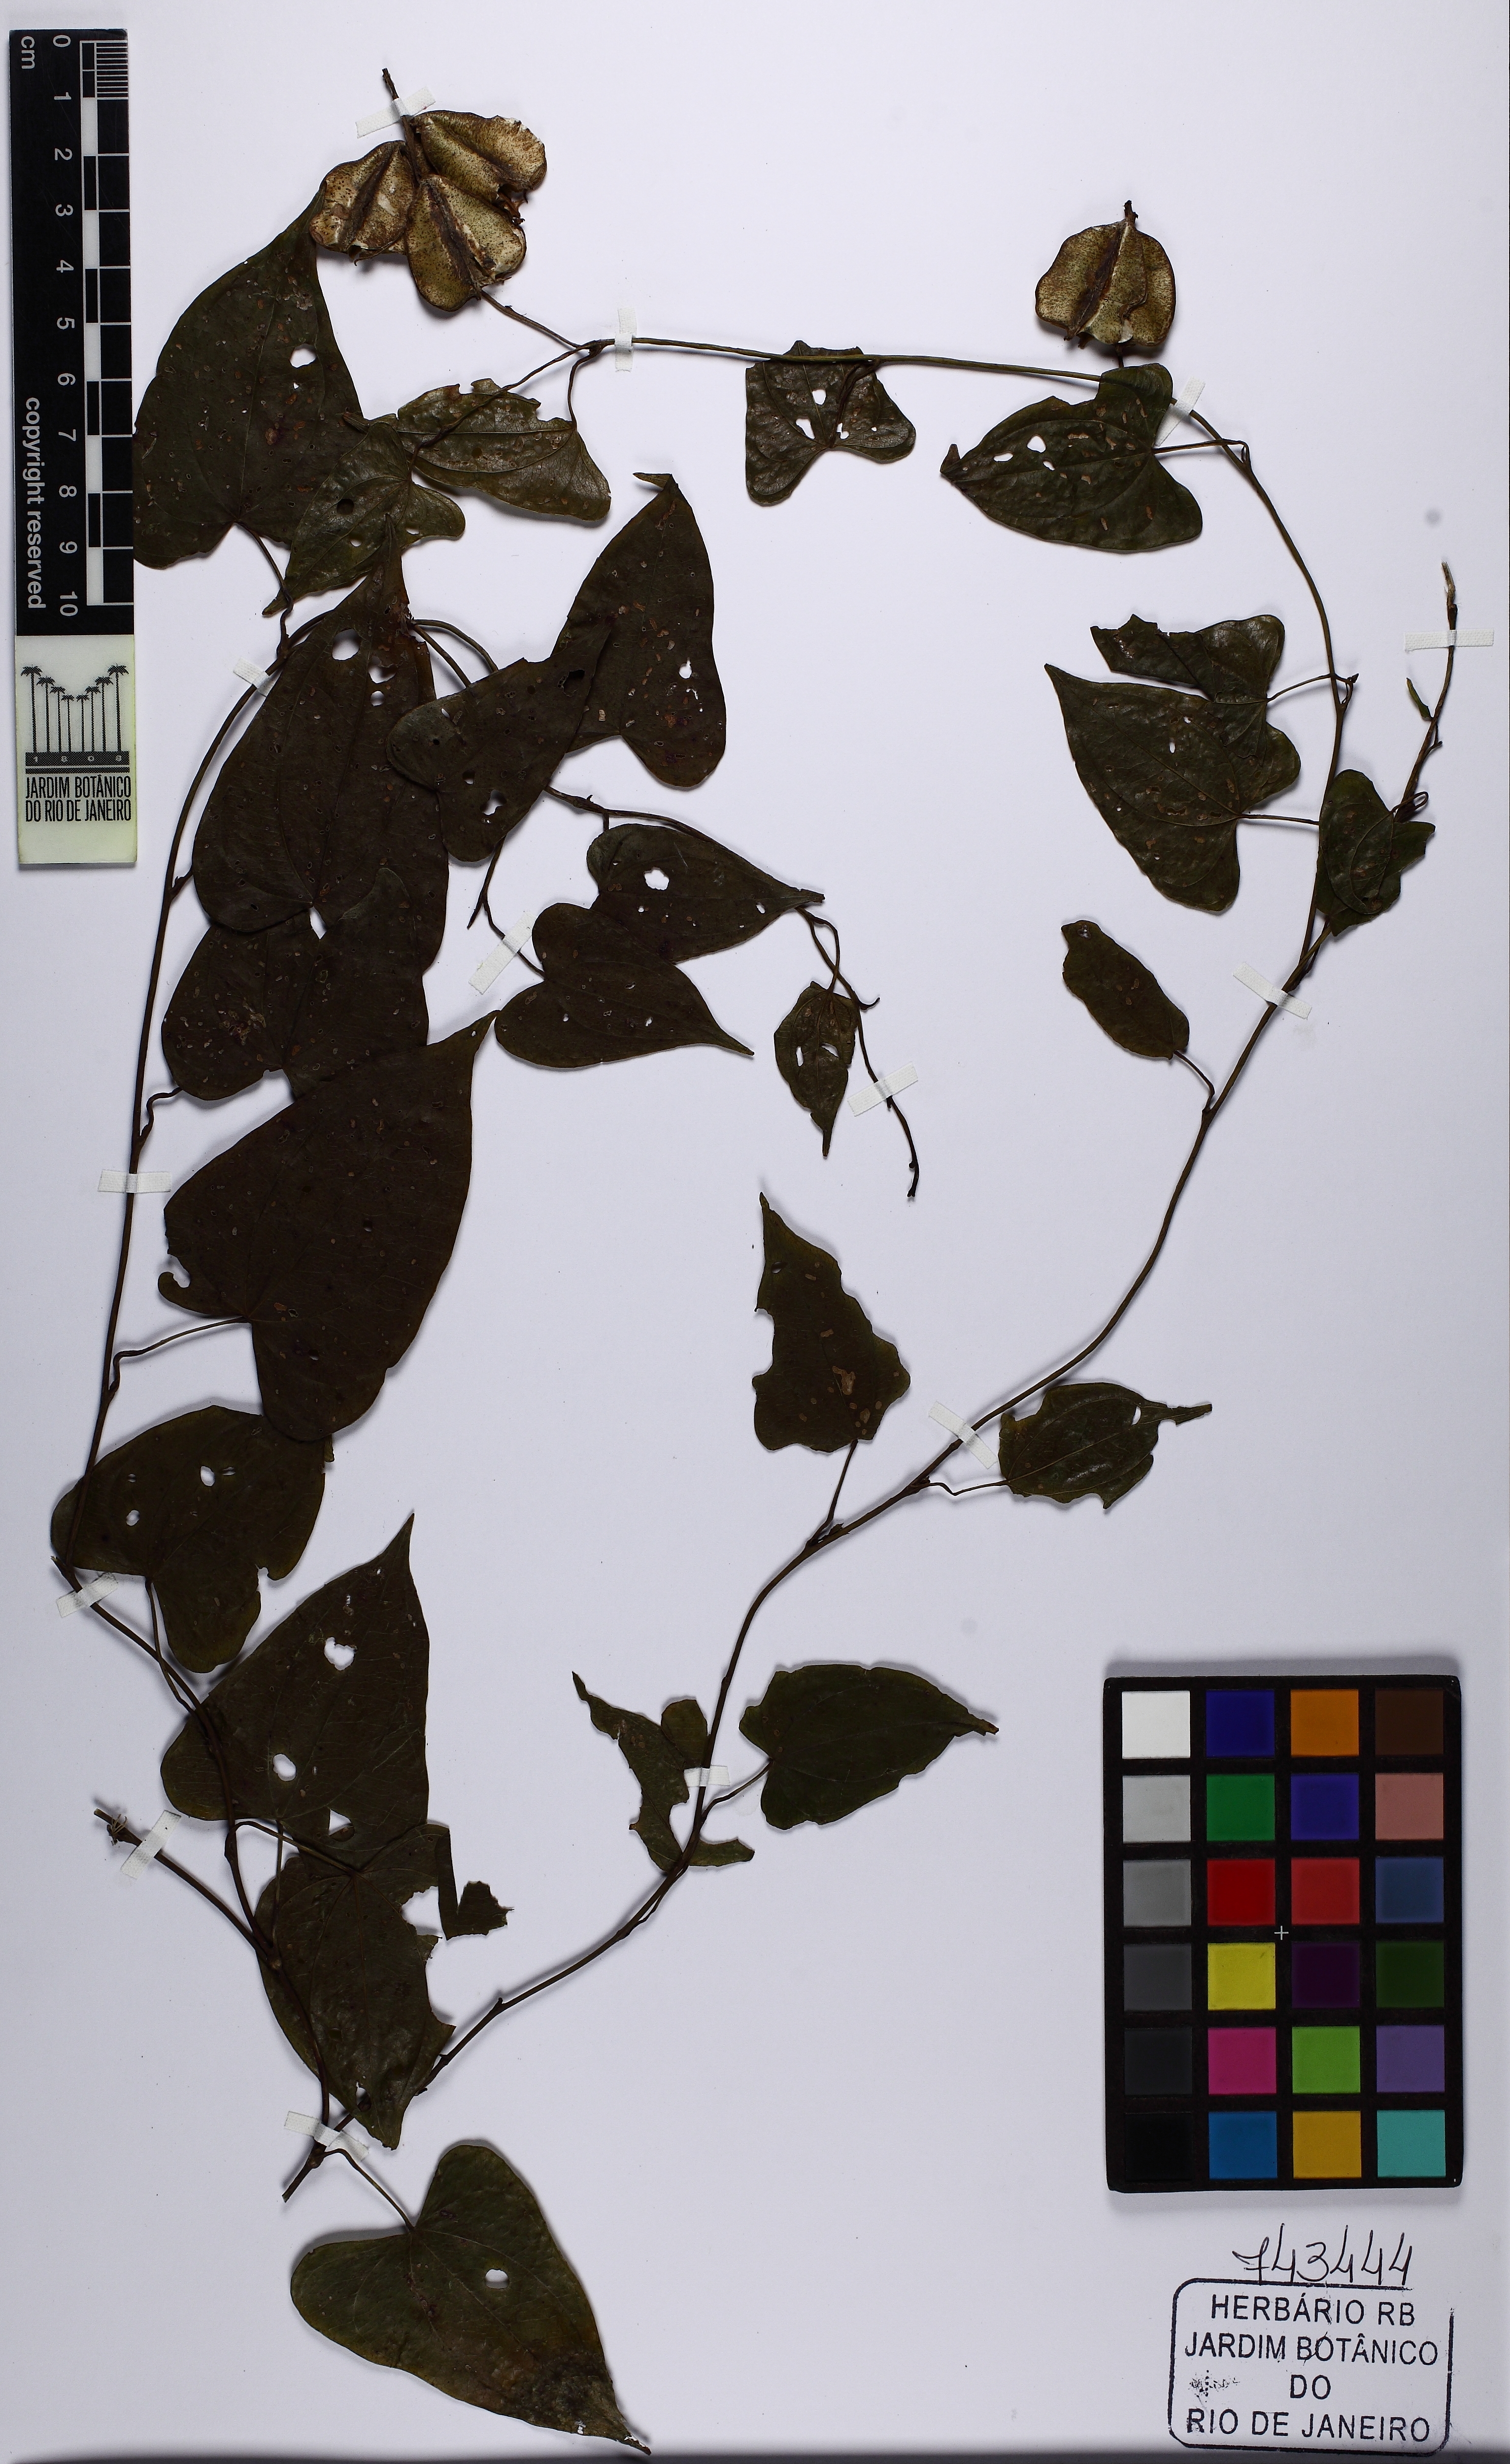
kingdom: Plantae
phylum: Tracheophyta
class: Liliopsida
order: Dioscoreales
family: Dioscoreaceae
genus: Dioscorea
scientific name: Dioscorea marginata
